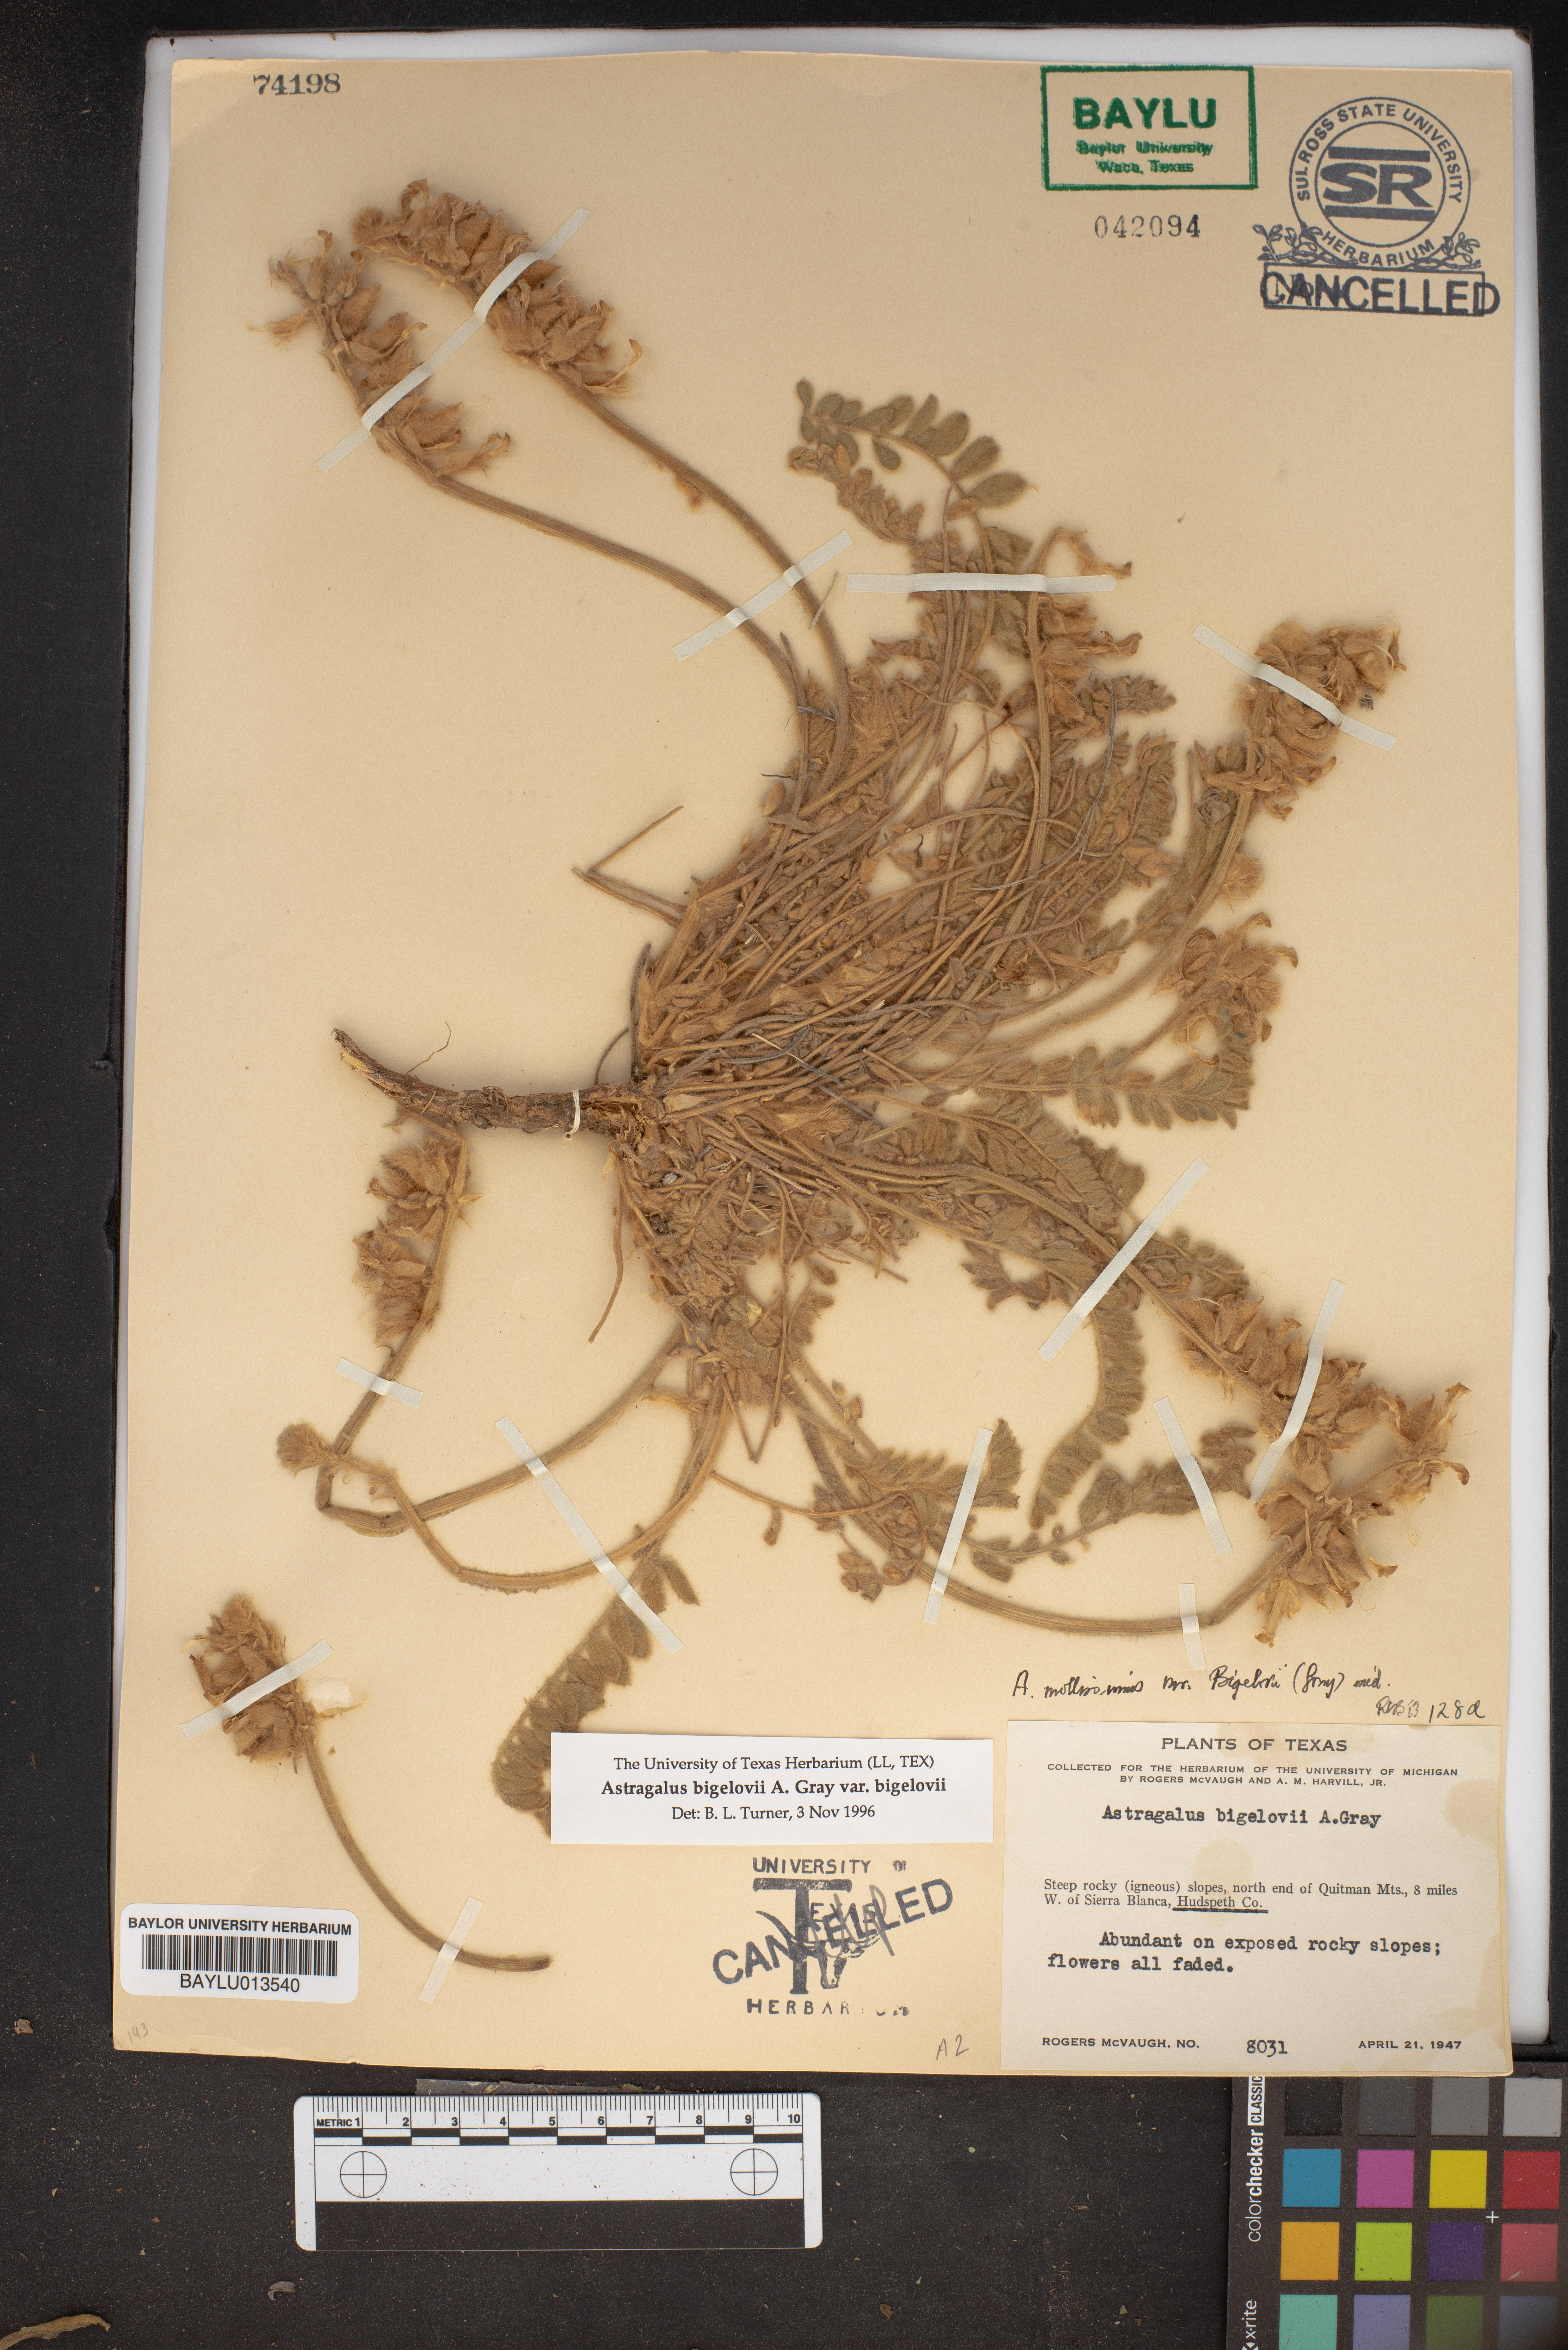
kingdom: Plantae
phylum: Tracheophyta
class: Magnoliopsida
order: Fabales
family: Fabaceae
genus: Astragalus
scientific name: Astragalus mollissimus
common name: Woolly locoweed
